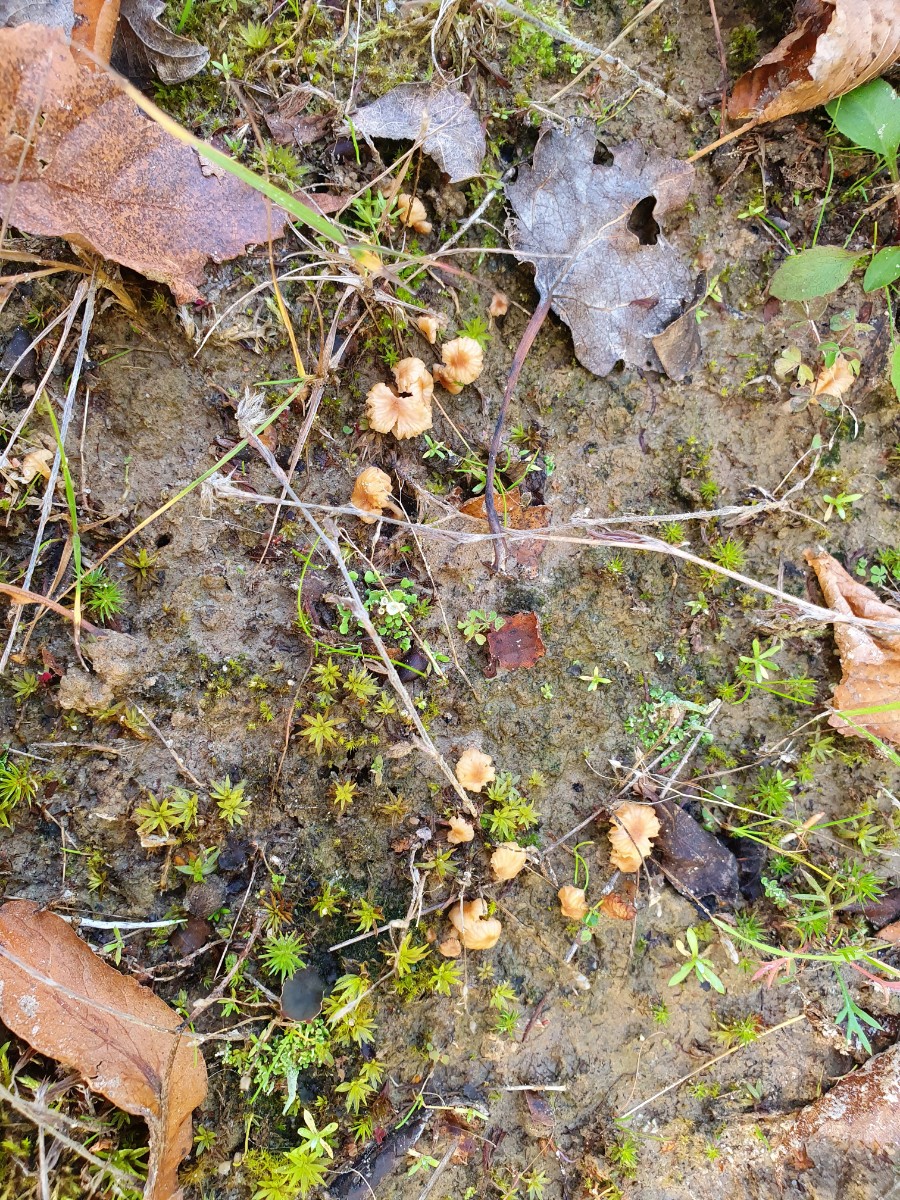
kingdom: Fungi
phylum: Basidiomycota
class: Agaricomycetes
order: Agaricales
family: Hydnangiaceae
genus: Laccaria
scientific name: Laccaria tortilis
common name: krybende ametysthat
